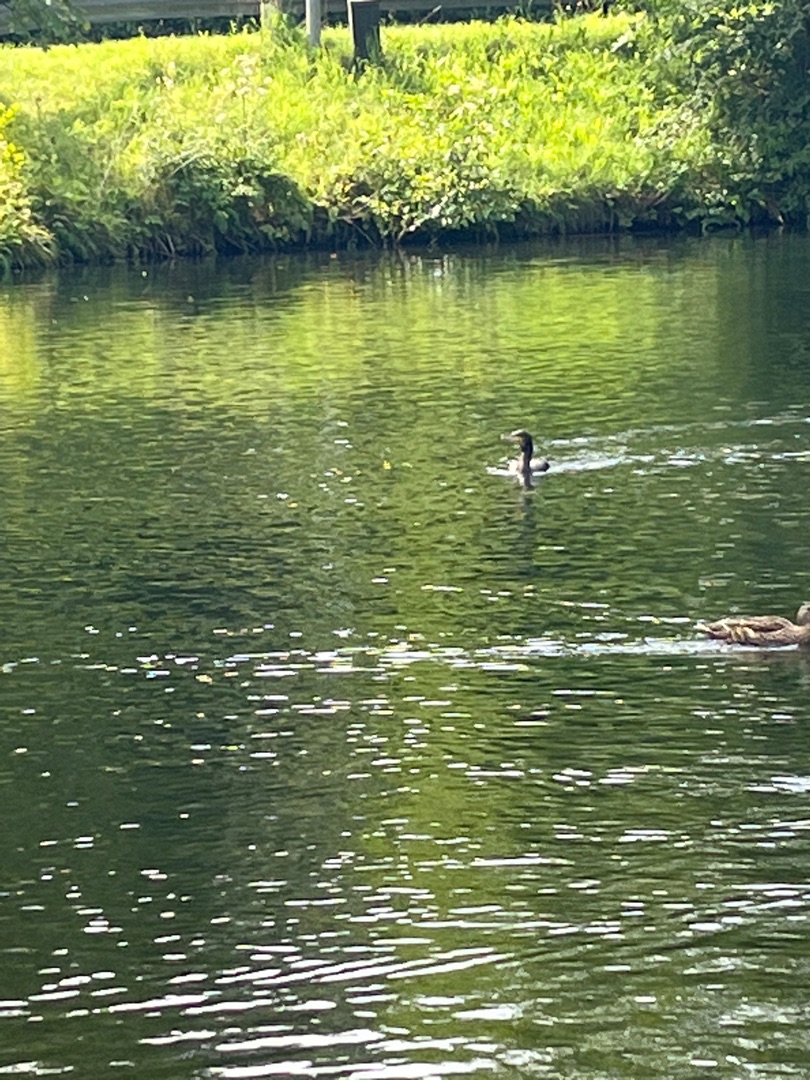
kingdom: Animalia
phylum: Chordata
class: Aves
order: Suliformes
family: Phalacrocoracidae
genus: Phalacrocorax
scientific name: Phalacrocorax carbo
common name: Skarv
